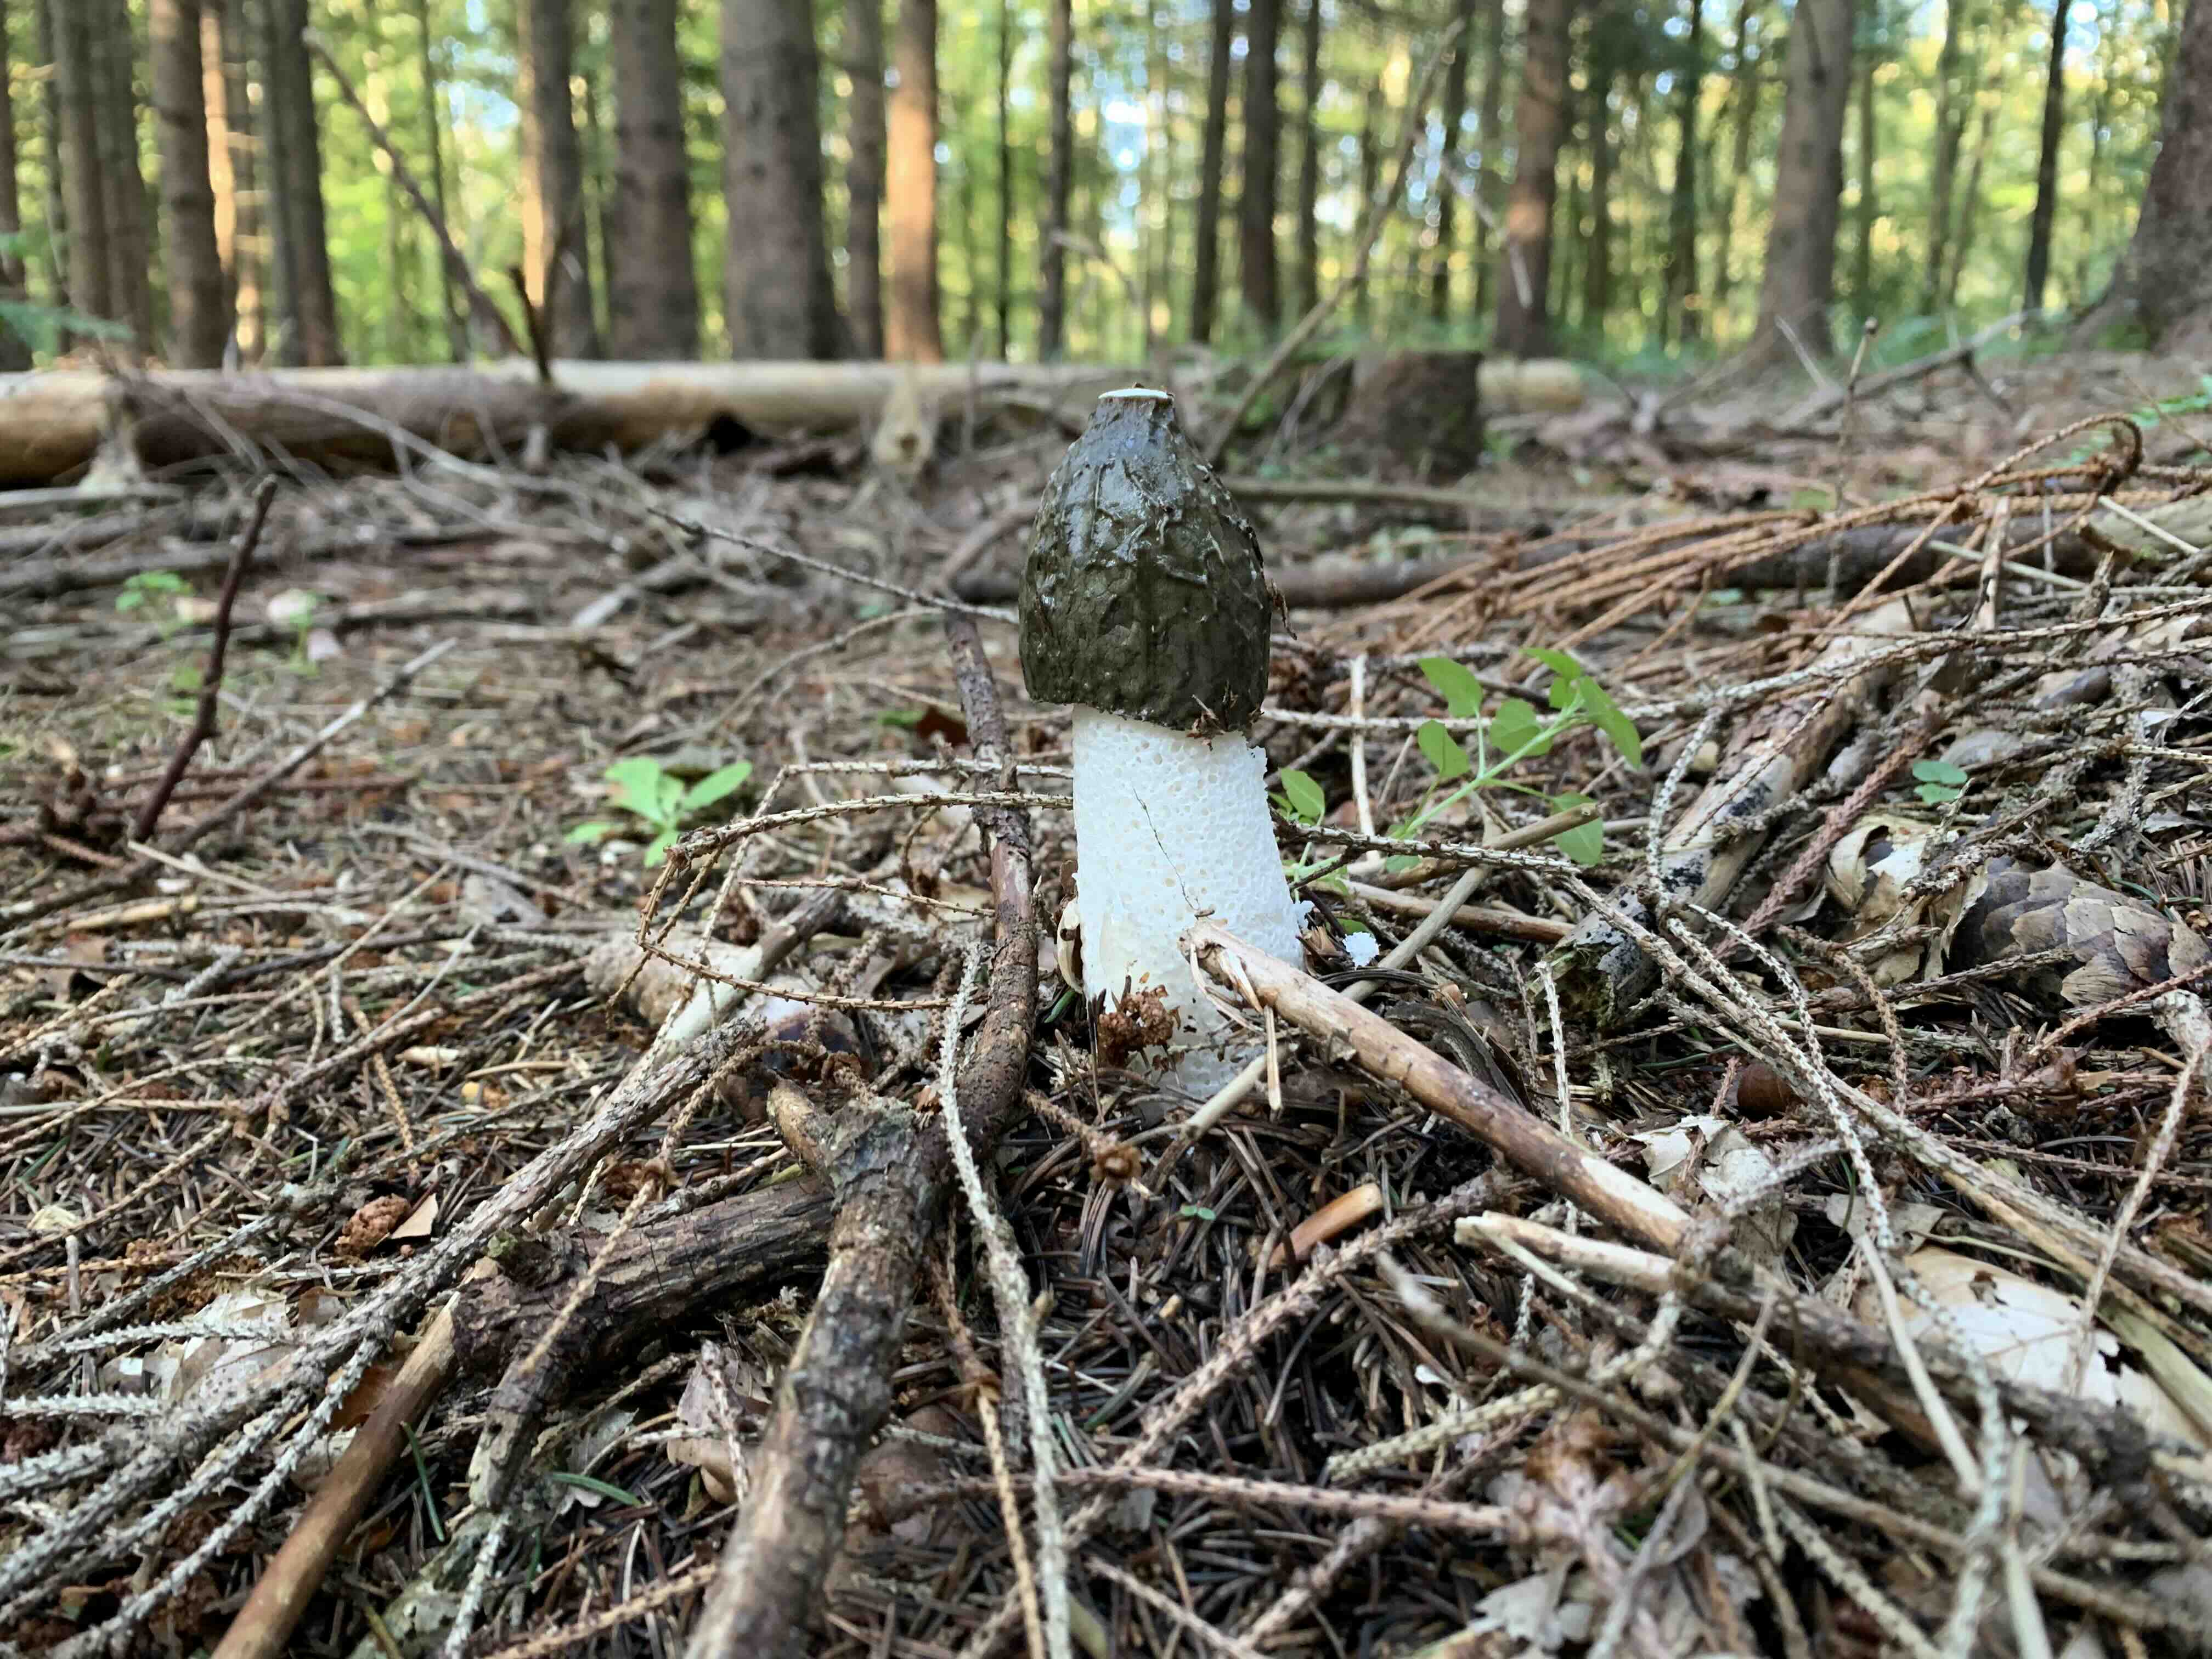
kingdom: Fungi
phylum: Basidiomycota
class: Agaricomycetes
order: Phallales
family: Phallaceae
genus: Phallus
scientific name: Phallus impudicus
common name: almindelig stinksvamp
